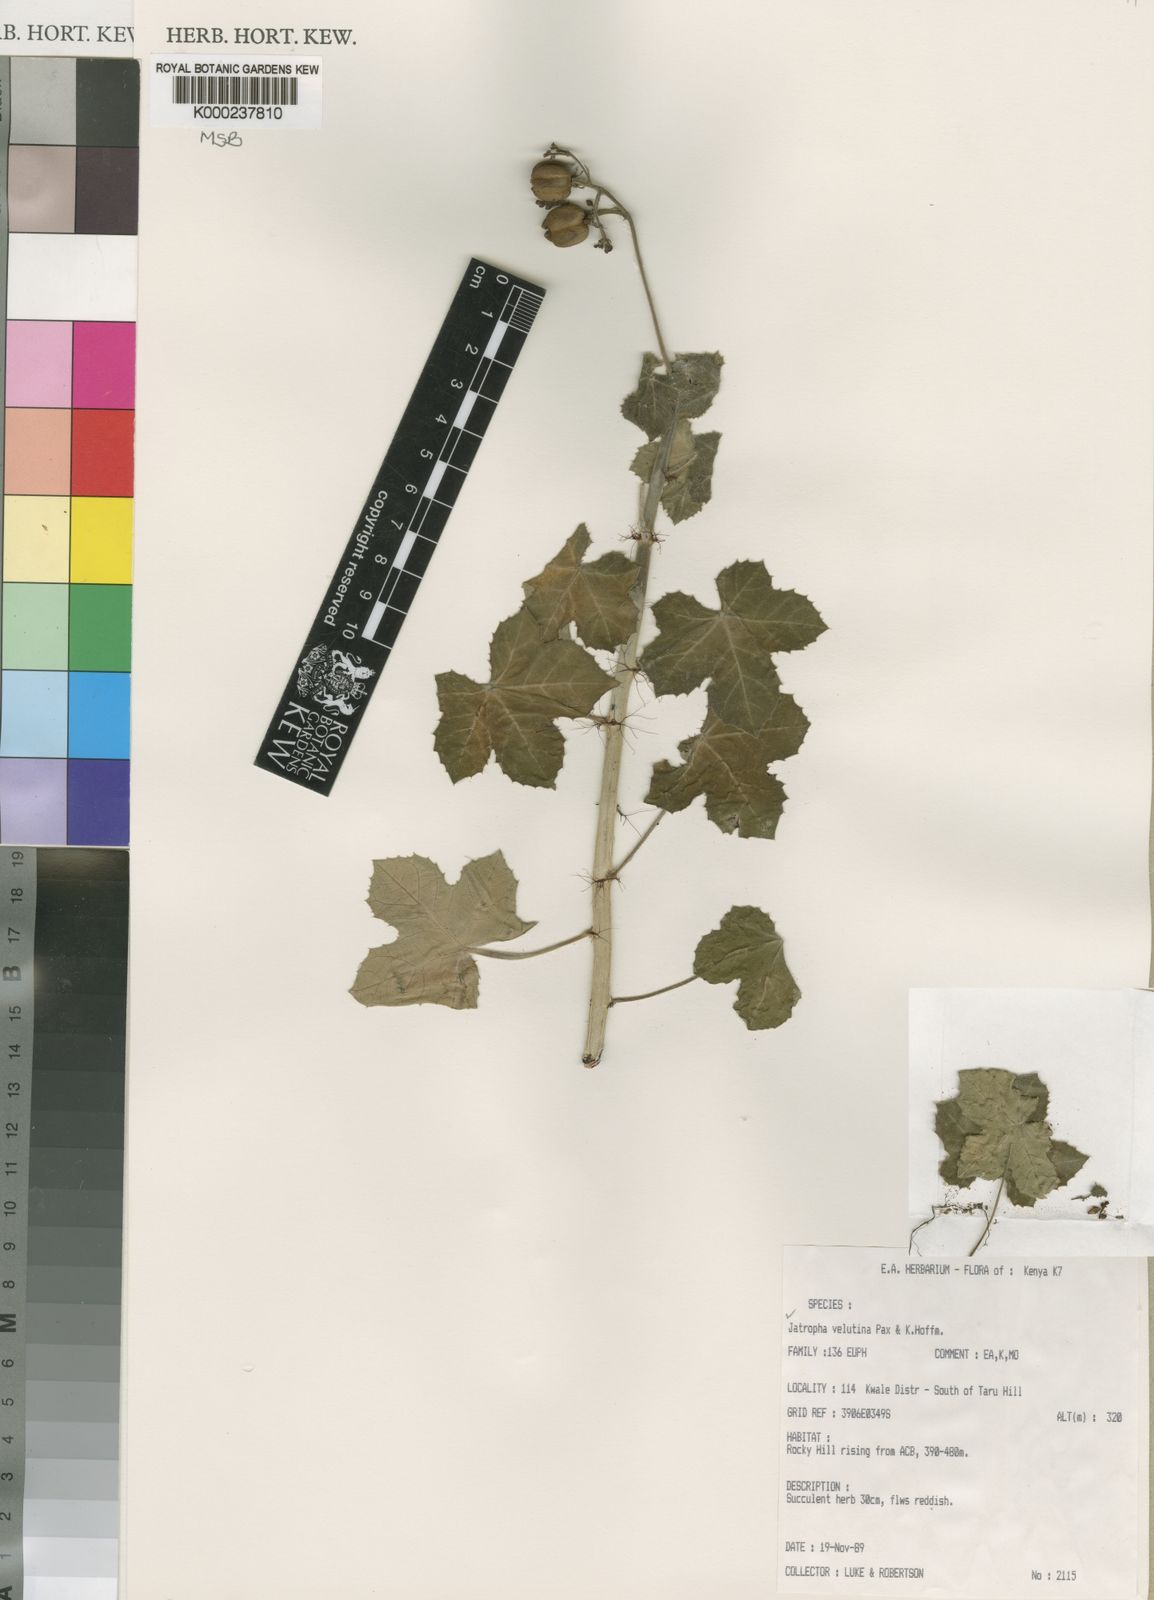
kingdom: Plantae
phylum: Tracheophyta
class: Magnoliopsida
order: Malpighiales
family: Euphorbiaceae
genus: Jatropha
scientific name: Jatropha velutina
